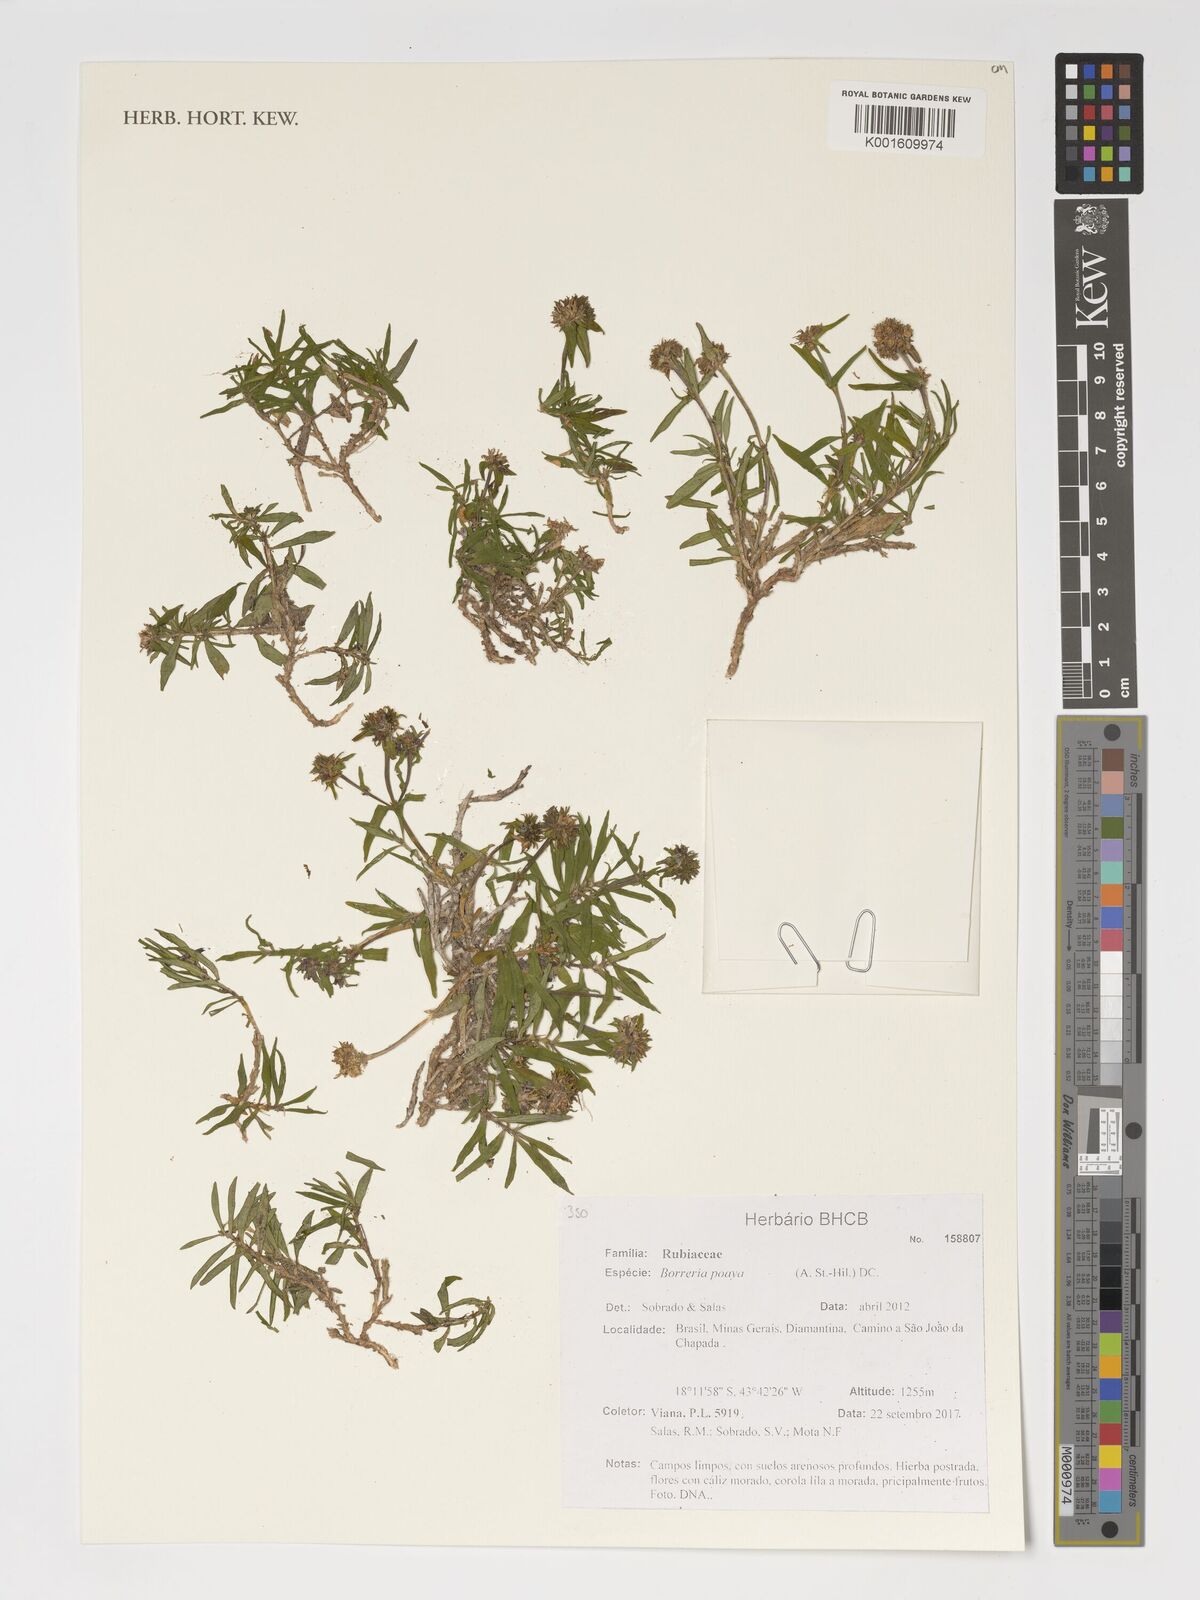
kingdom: Plantae
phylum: Tracheophyta
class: Magnoliopsida
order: Gentianales
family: Rubiaceae
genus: Spermacoce
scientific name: Spermacoce poaya
